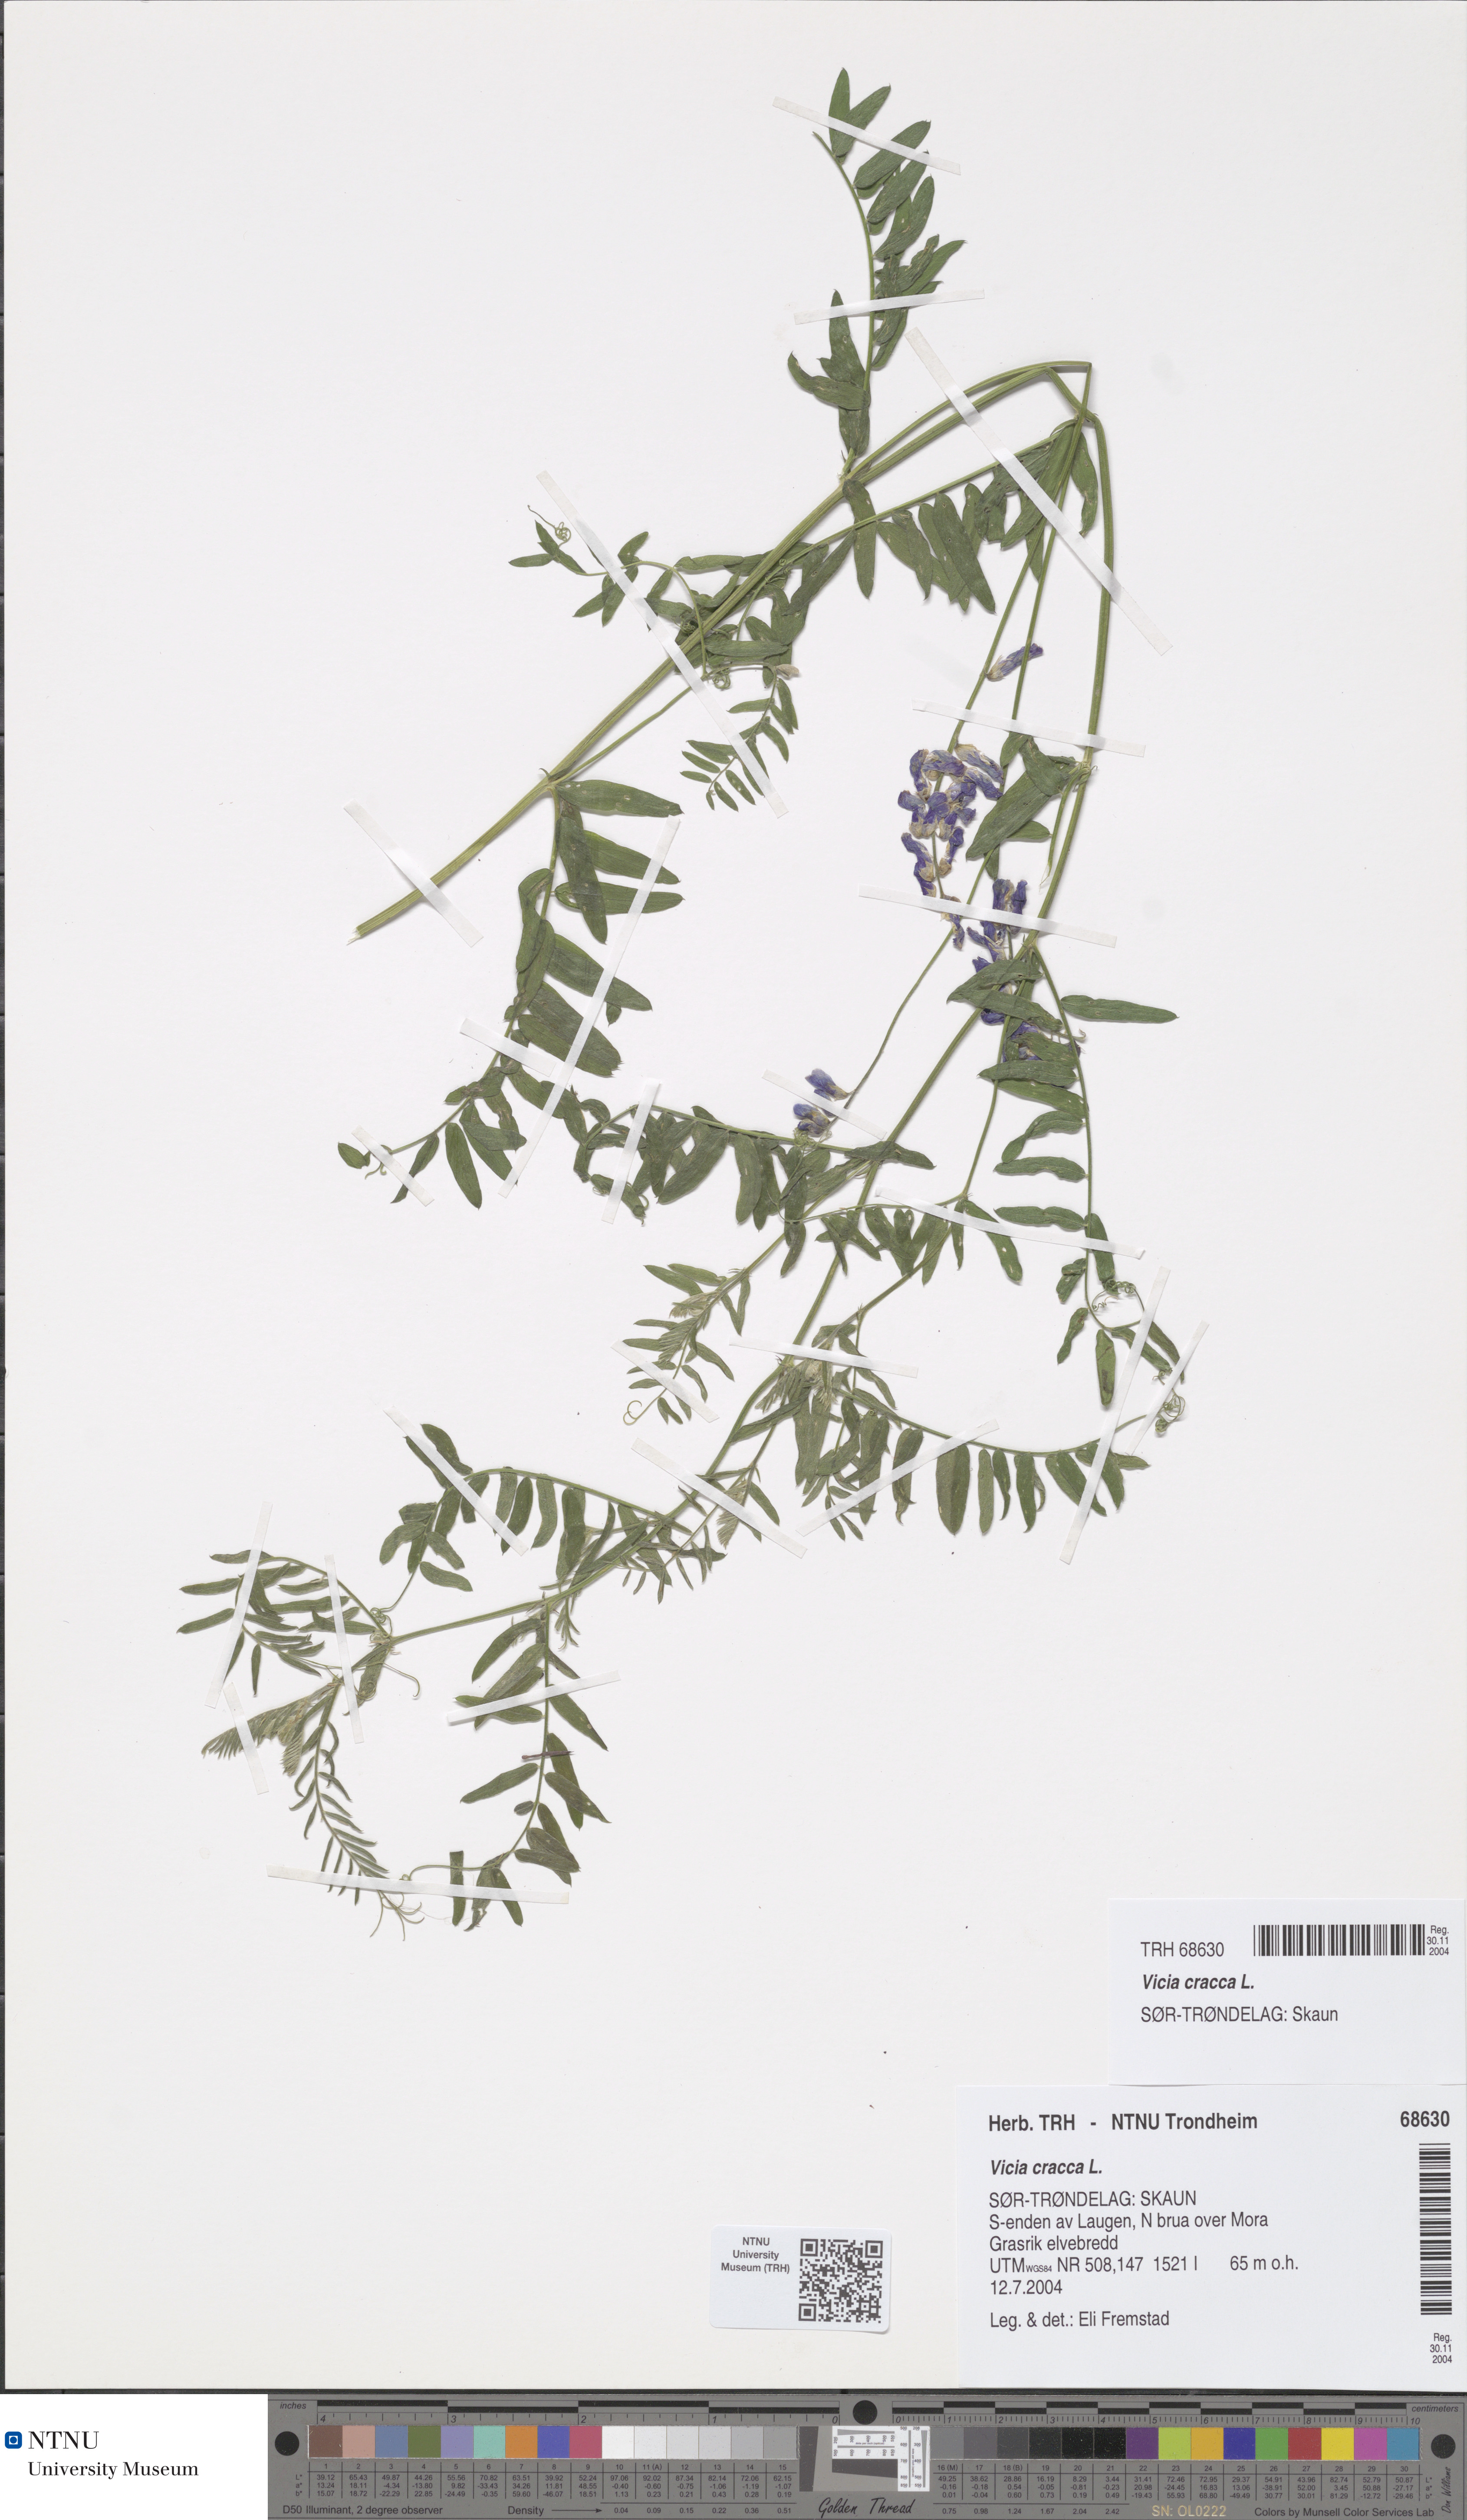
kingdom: Plantae
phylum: Tracheophyta
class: Magnoliopsida
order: Fabales
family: Fabaceae
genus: Vicia
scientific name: Vicia cracca
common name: Bird vetch
